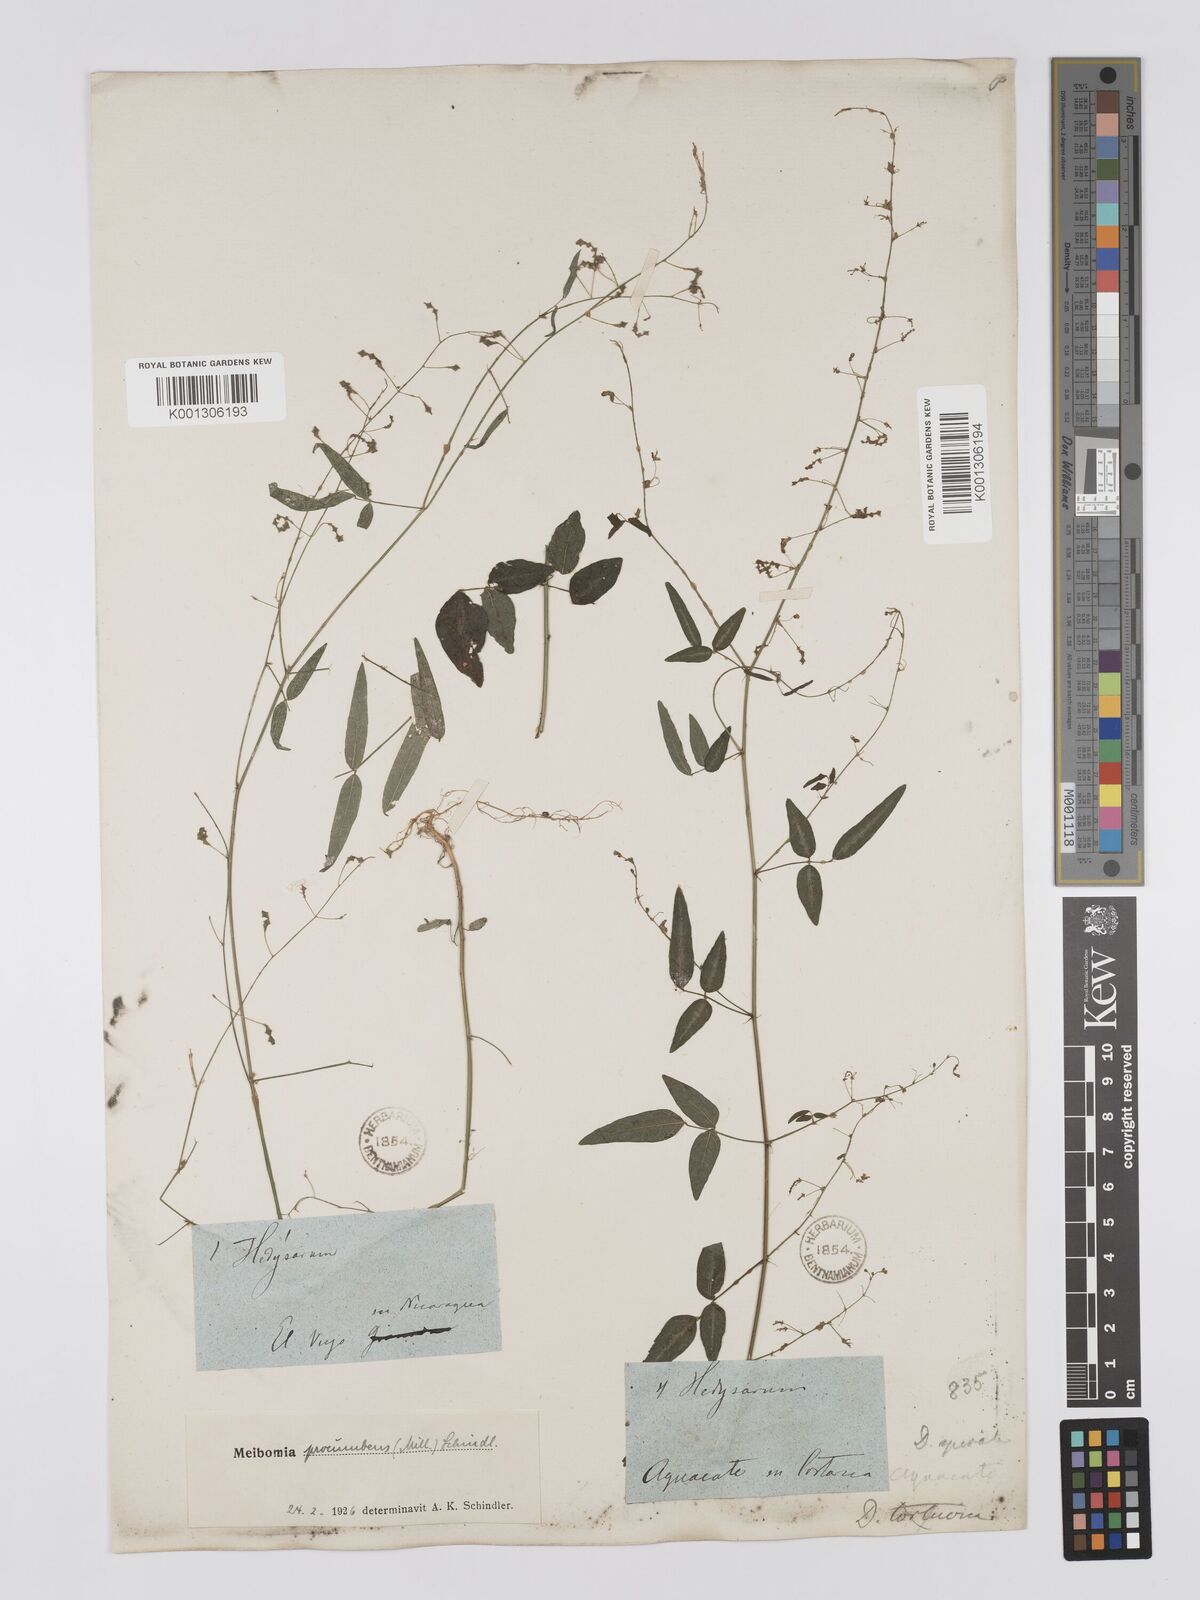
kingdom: Plantae
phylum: Tracheophyta
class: Magnoliopsida
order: Fabales
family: Fabaceae
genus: Desmodium
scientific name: Desmodium procumbens
